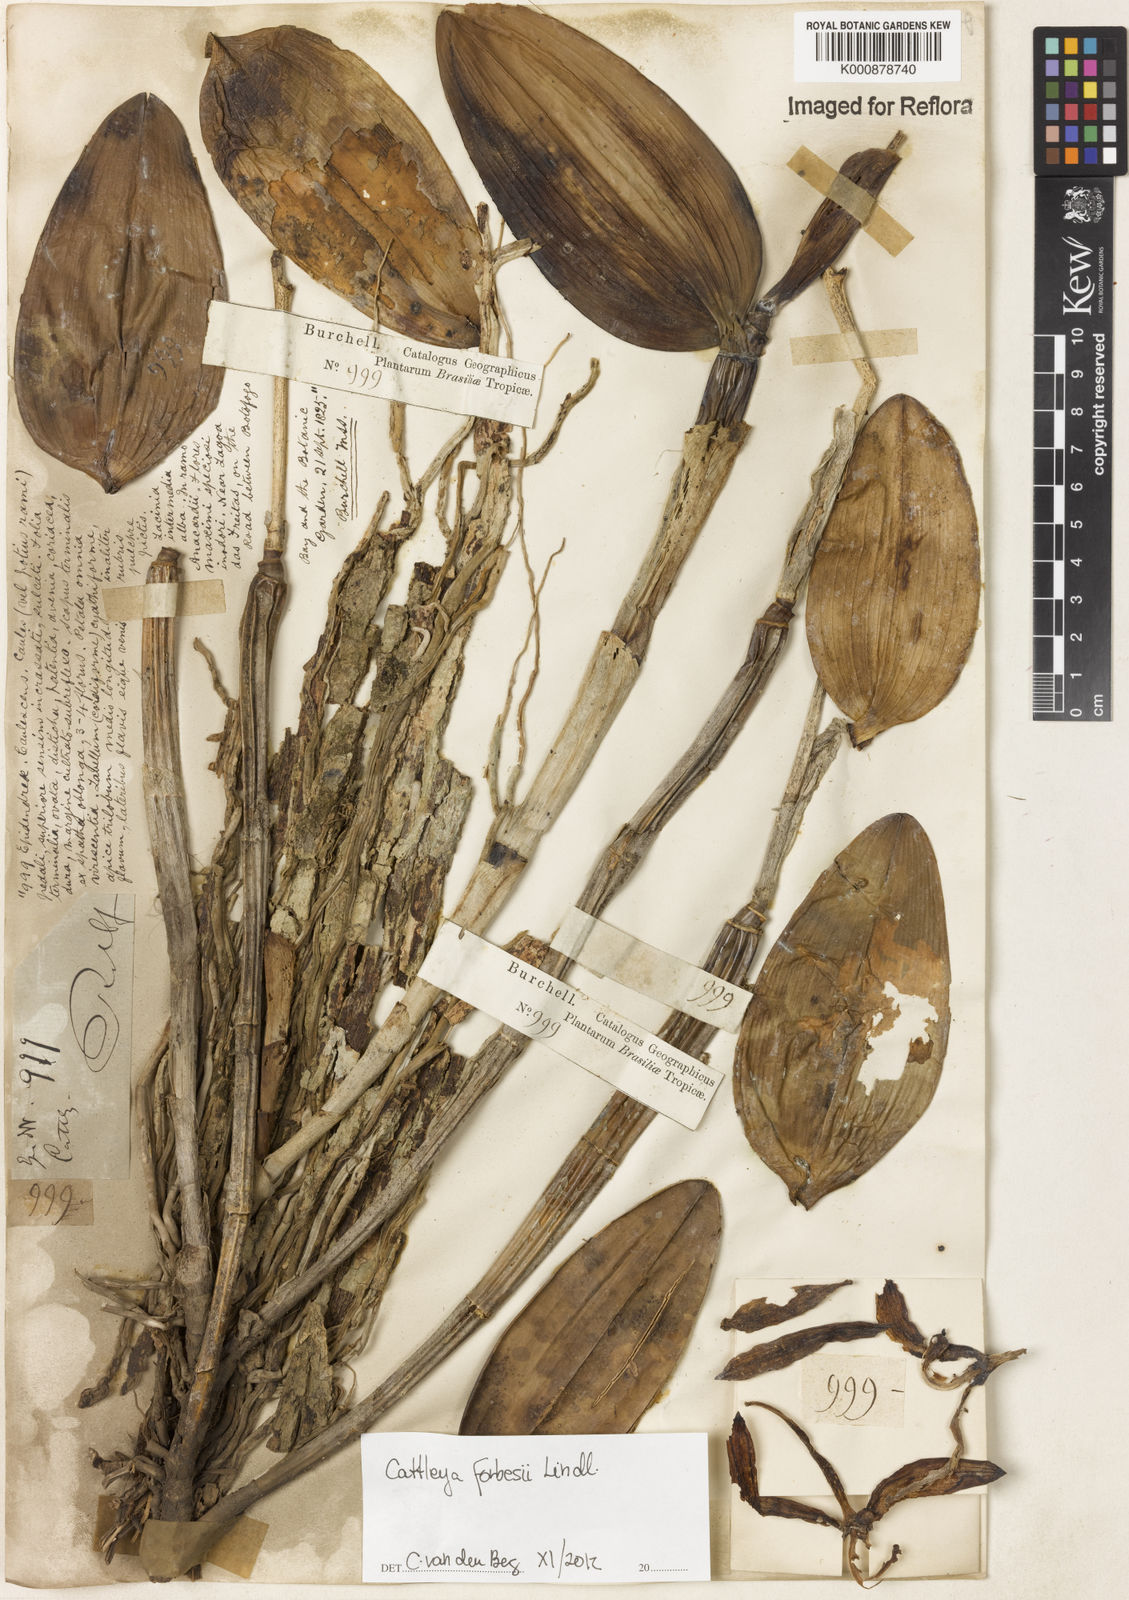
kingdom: Plantae
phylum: Tracheophyta
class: Liliopsida
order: Asparagales
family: Orchidaceae
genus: Cattleya
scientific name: Cattleya forbesii
